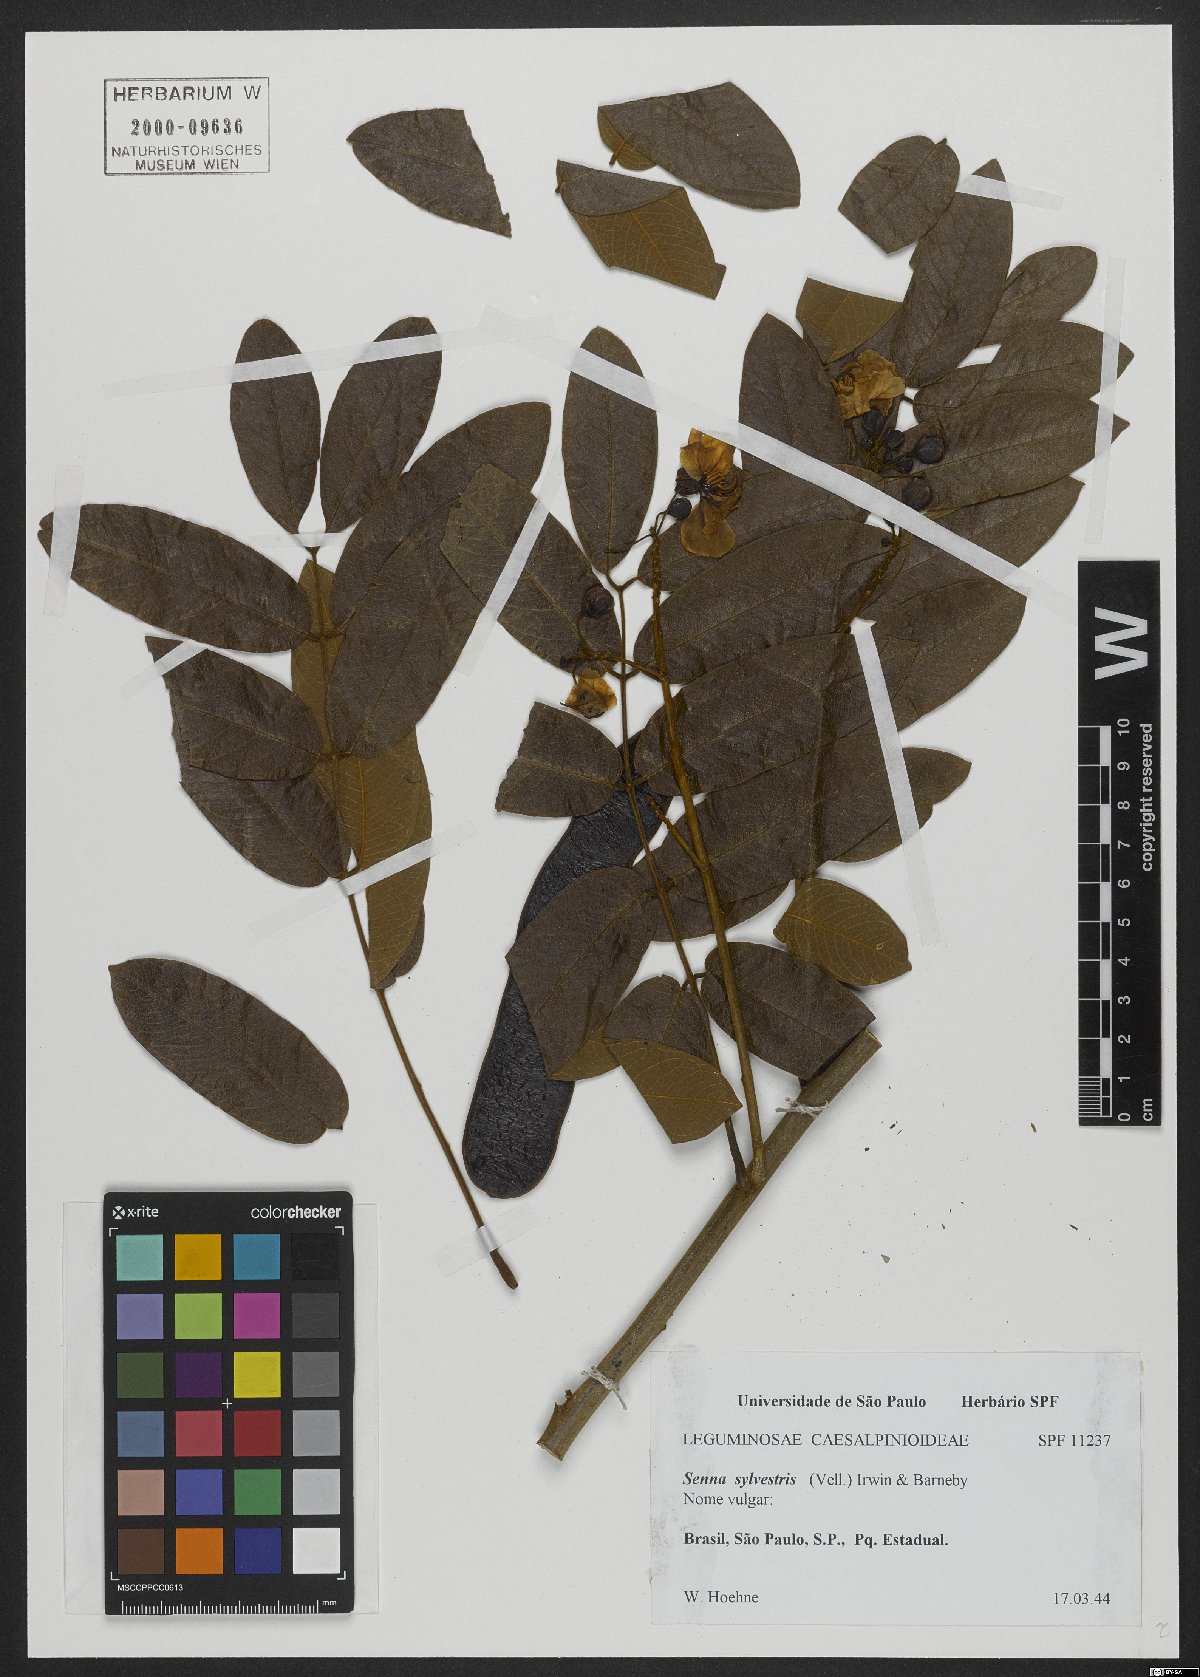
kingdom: Plantae
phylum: Tracheophyta
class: Magnoliopsida
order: Fabales
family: Fabaceae
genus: Senna
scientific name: Senna silvestris
